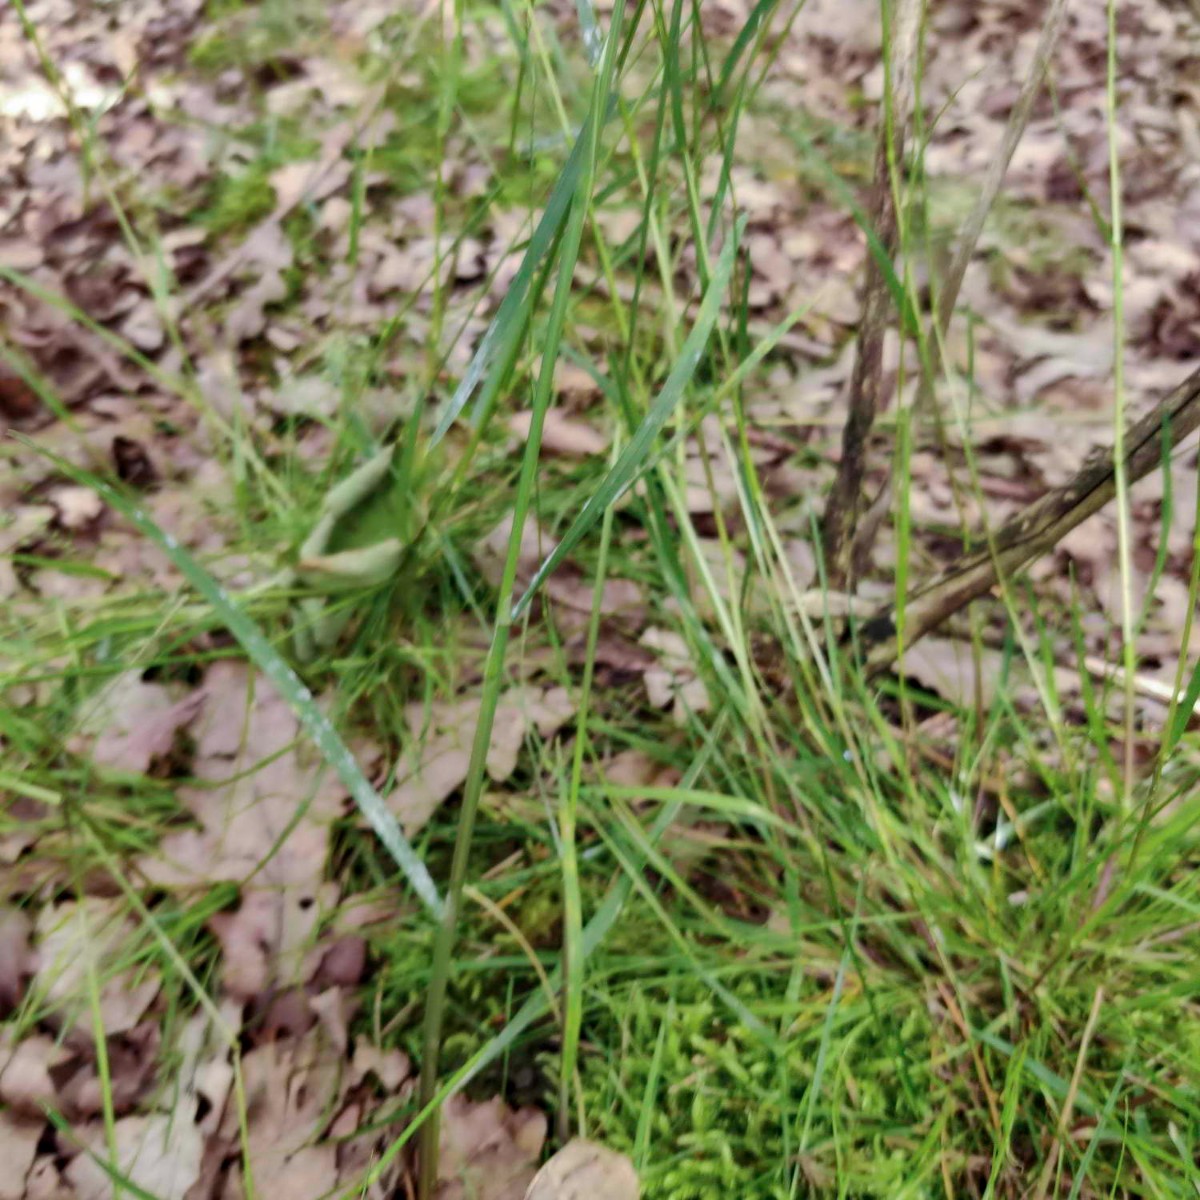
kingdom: Fungi
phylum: Ascomycota
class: Leotiomycetes
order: Helotiales
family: Erysiphaceae
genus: Blumeria
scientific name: Blumeria graminis
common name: græs-meldug
